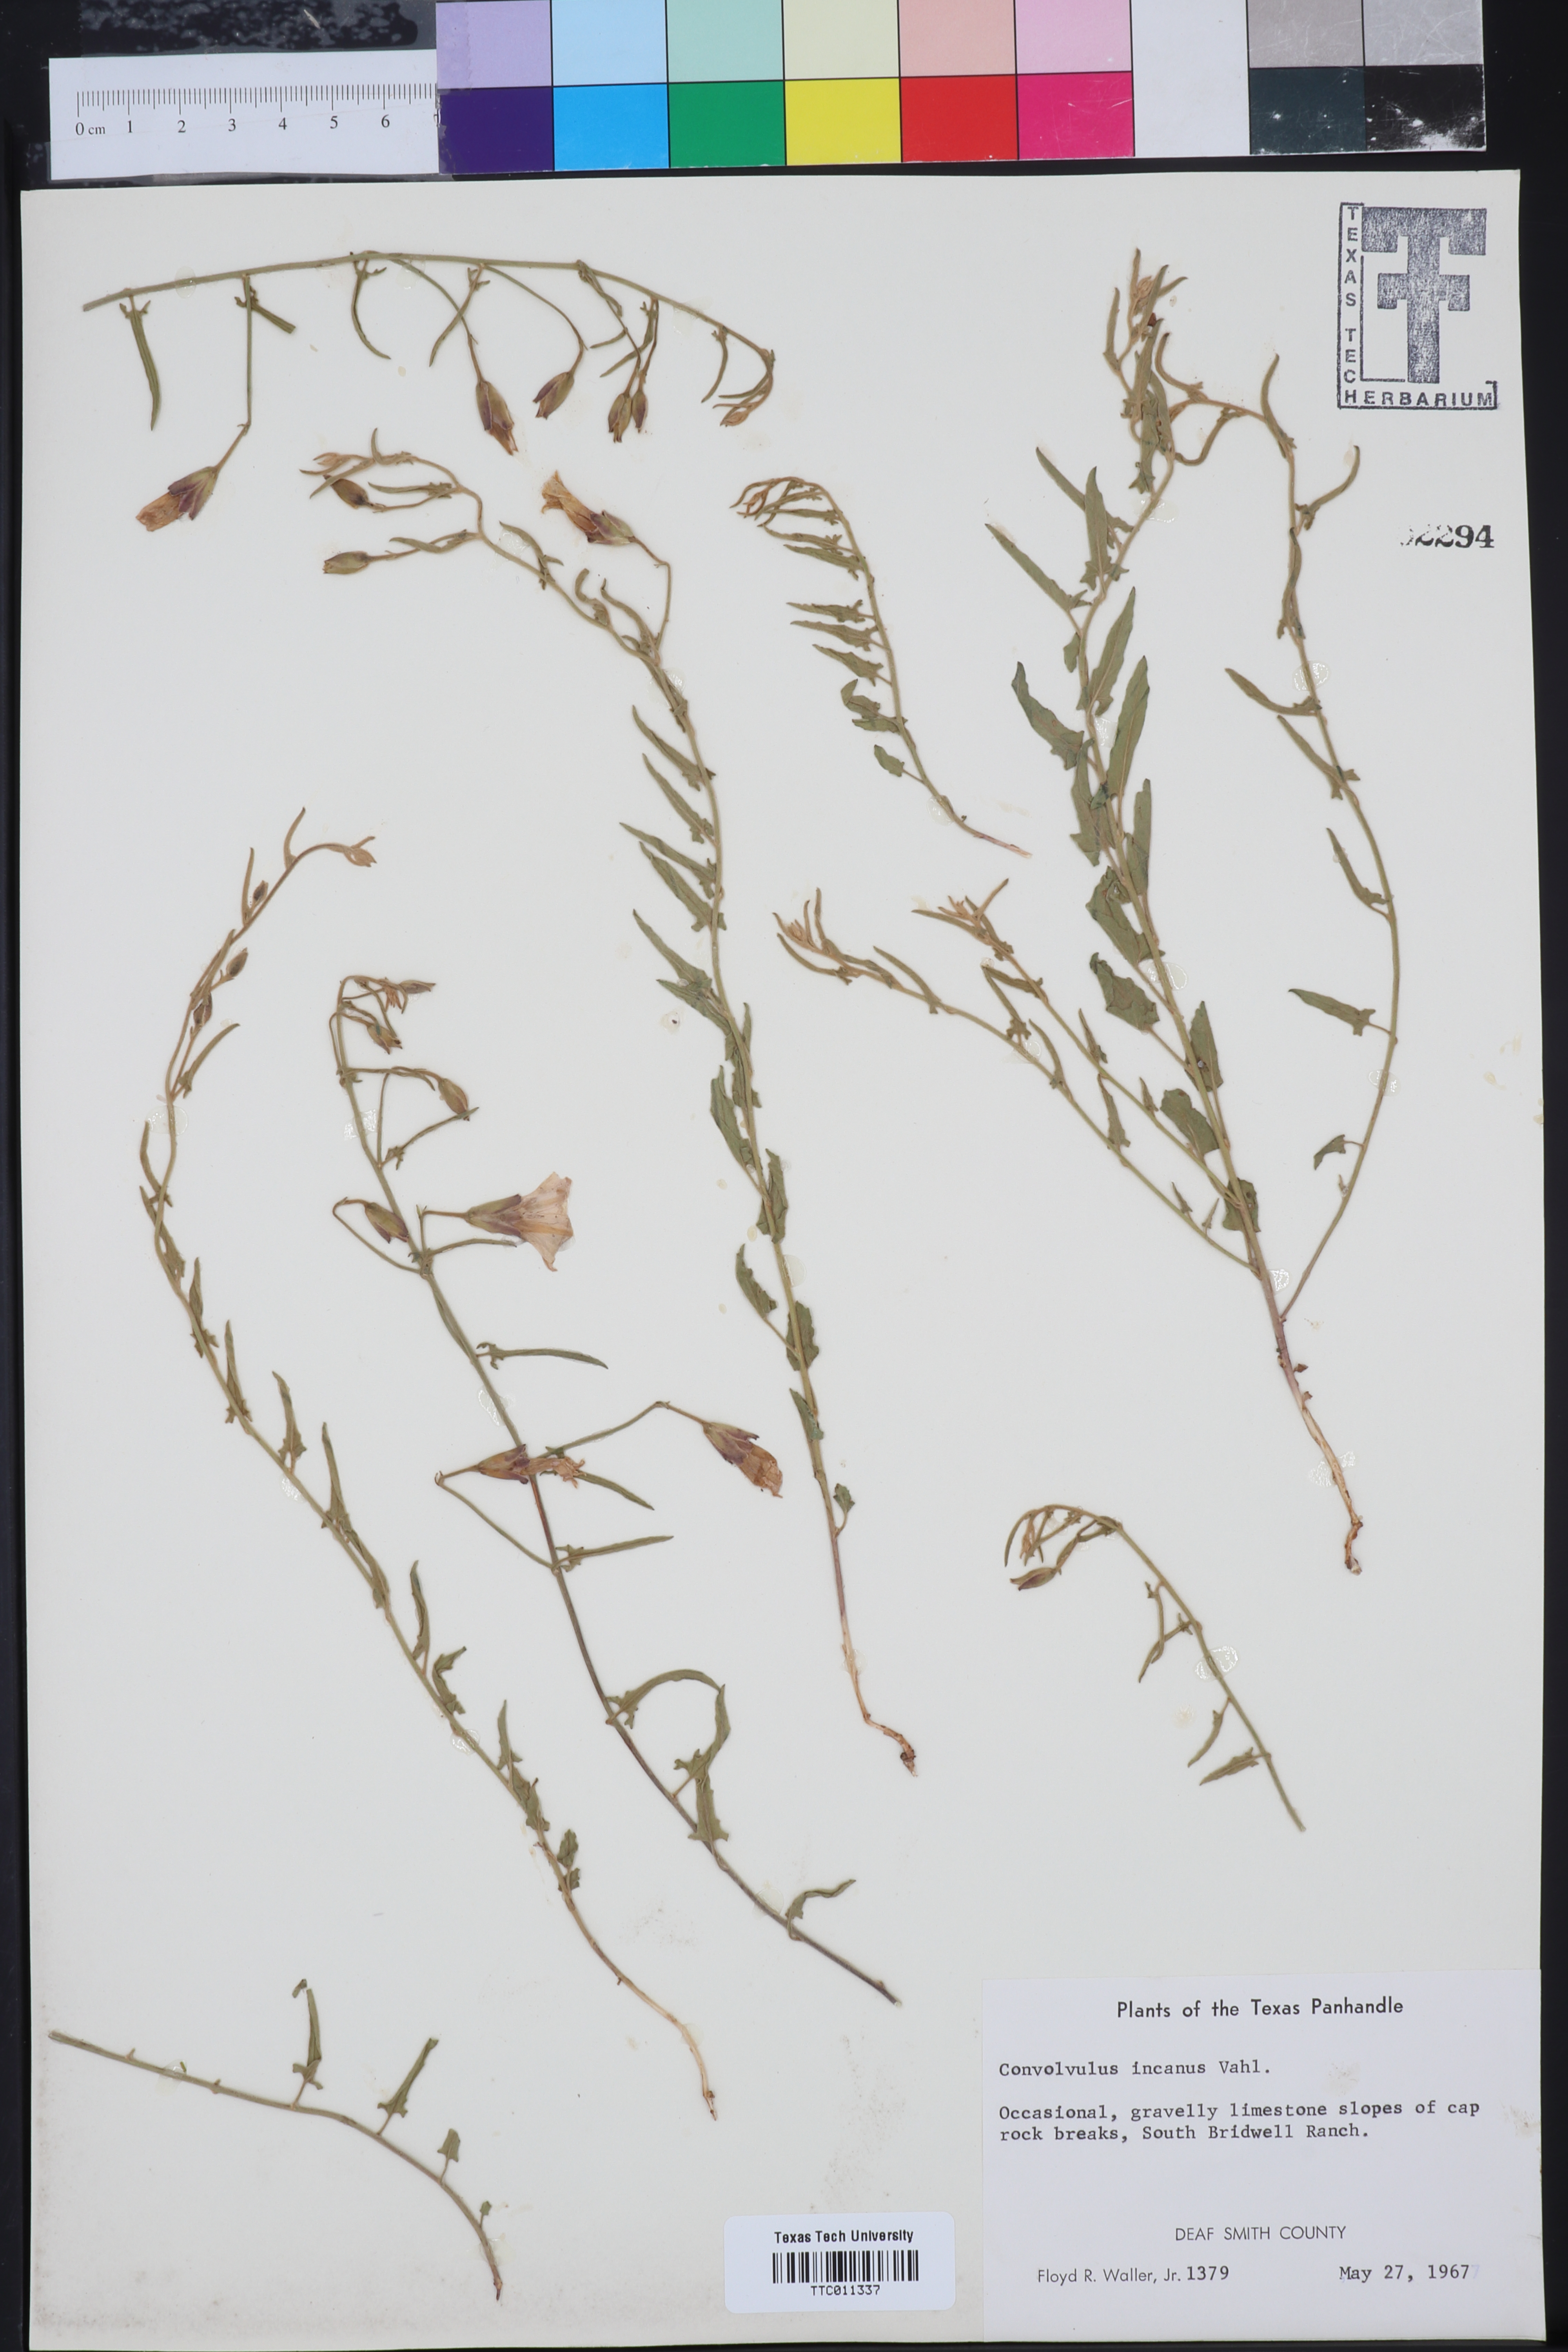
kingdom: Plantae
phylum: Tracheophyta
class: Magnoliopsida
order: Solanales
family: Convolvulaceae
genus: Convolvulus
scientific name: Convolvulus hermanniae
